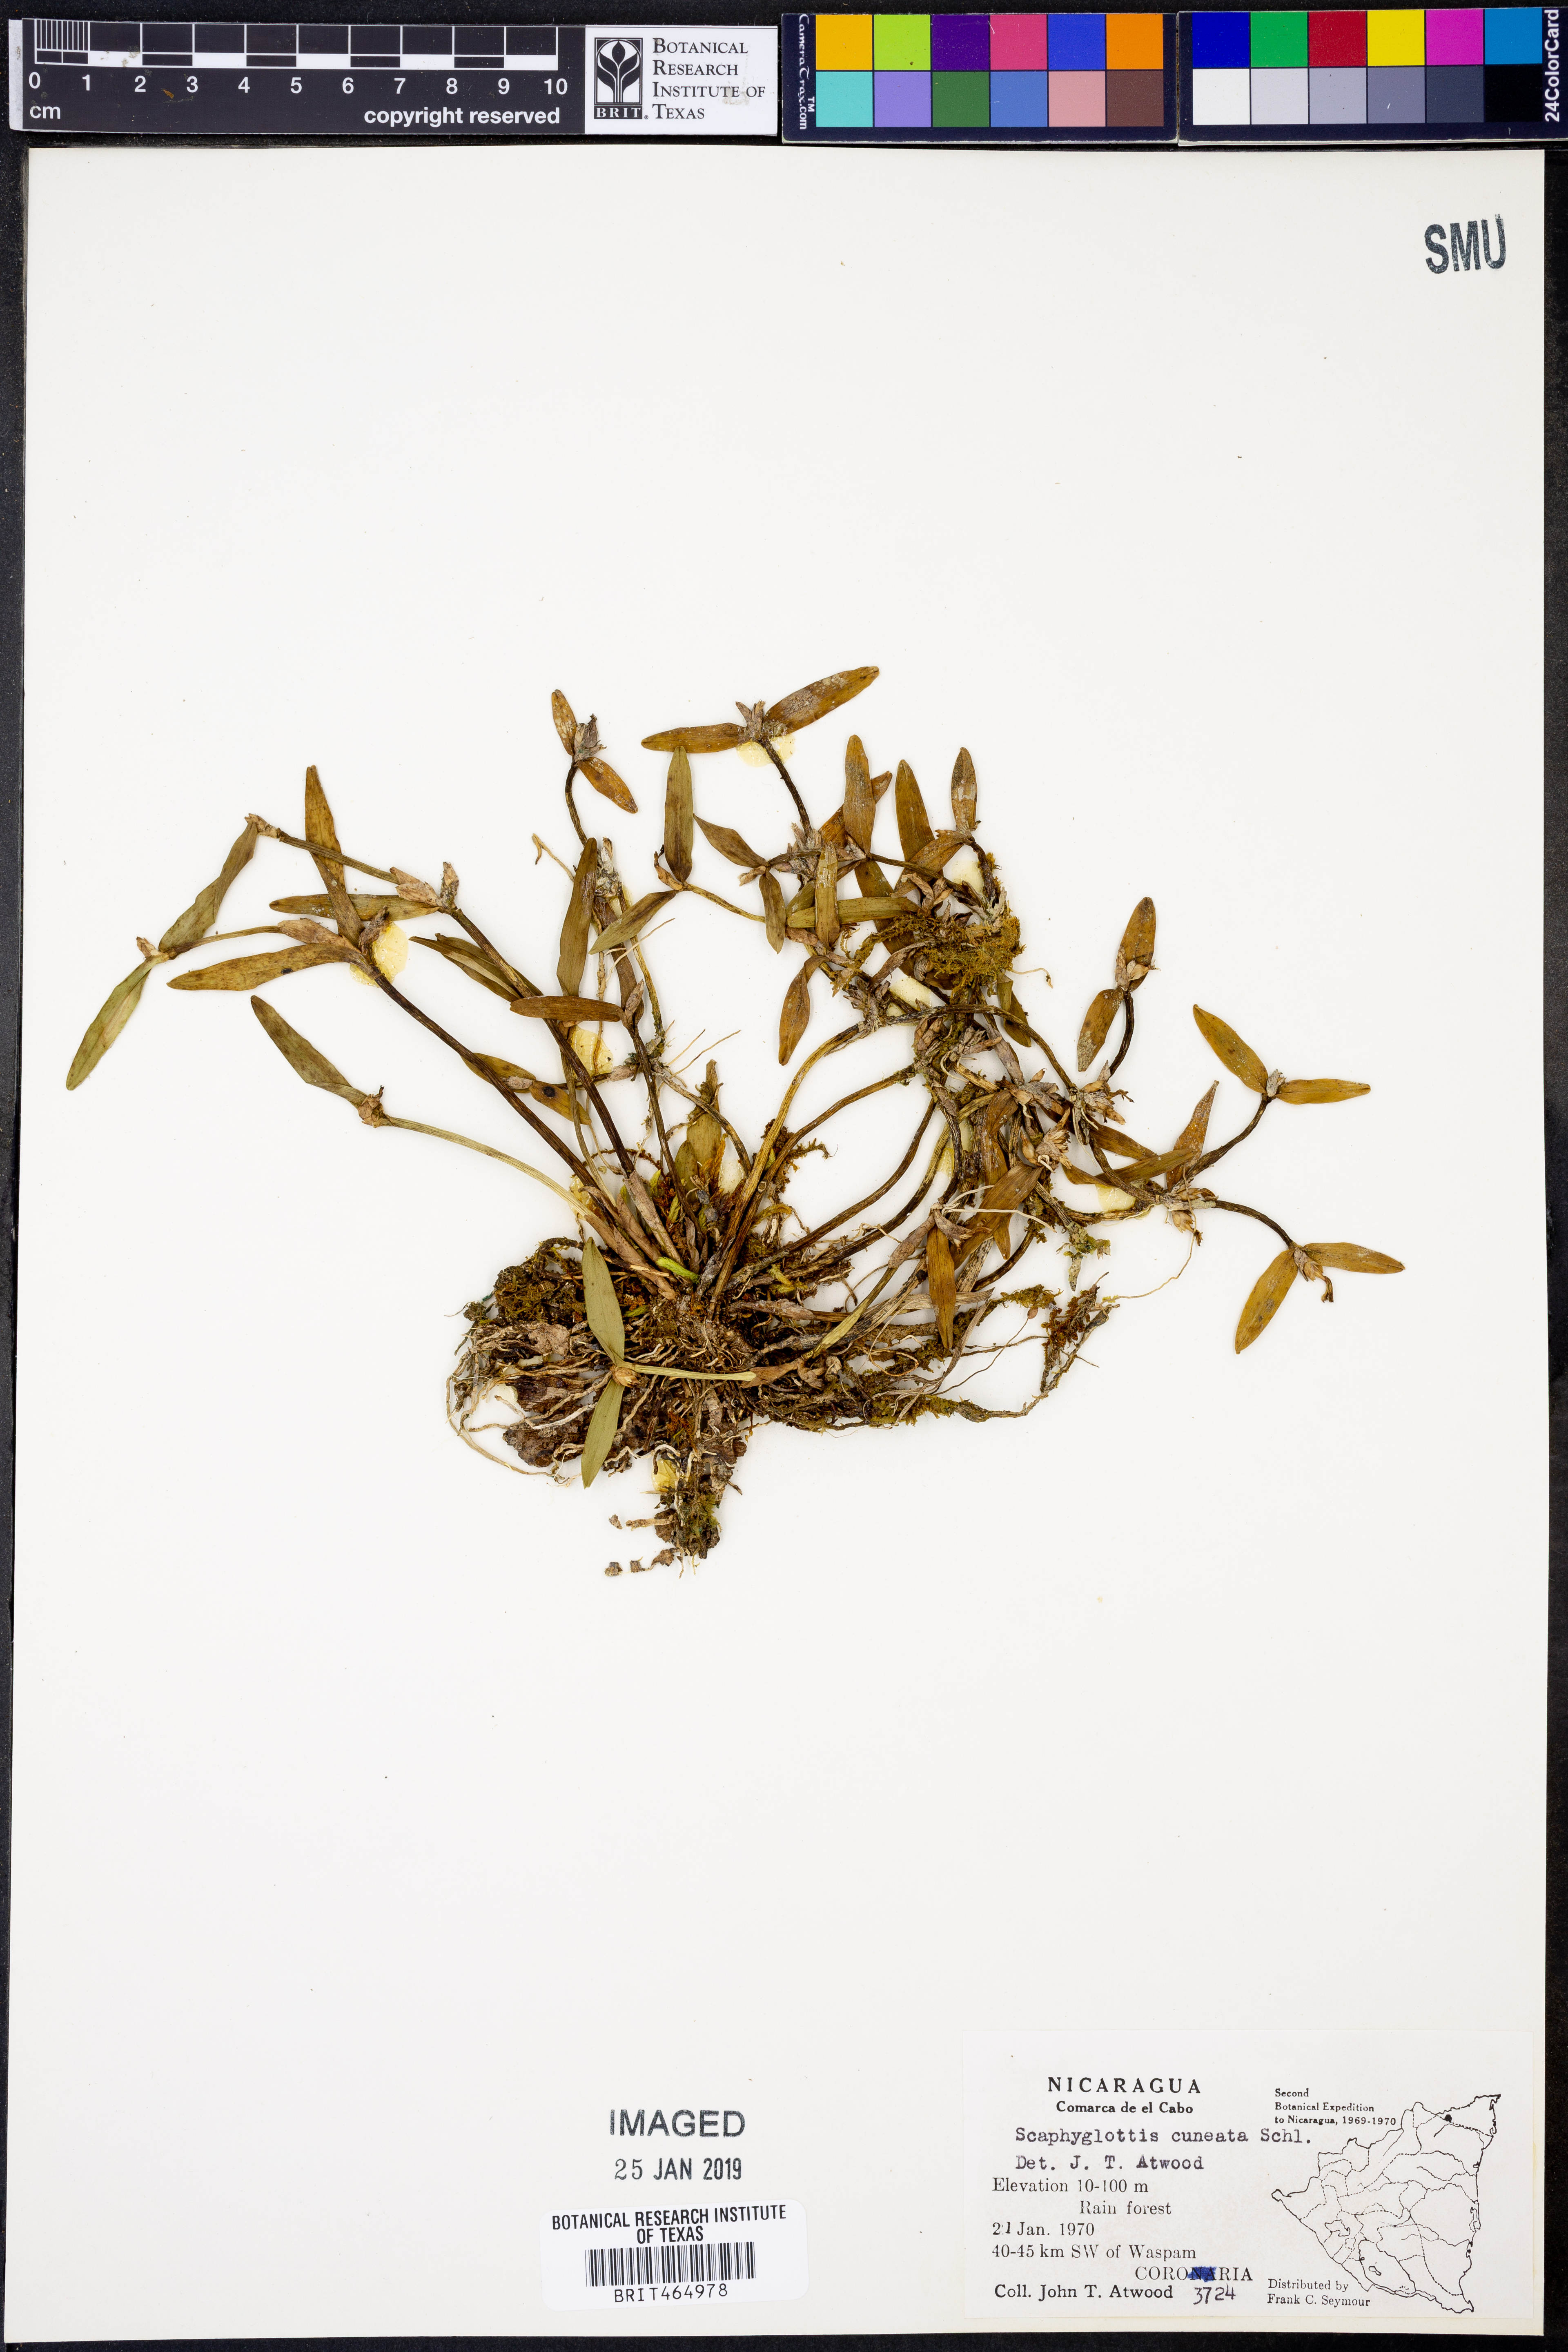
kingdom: Plantae
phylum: Tracheophyta
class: Liliopsida
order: Asparagales
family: Orchidaceae
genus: Scaphyglottis
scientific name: Scaphyglottis prolifera
